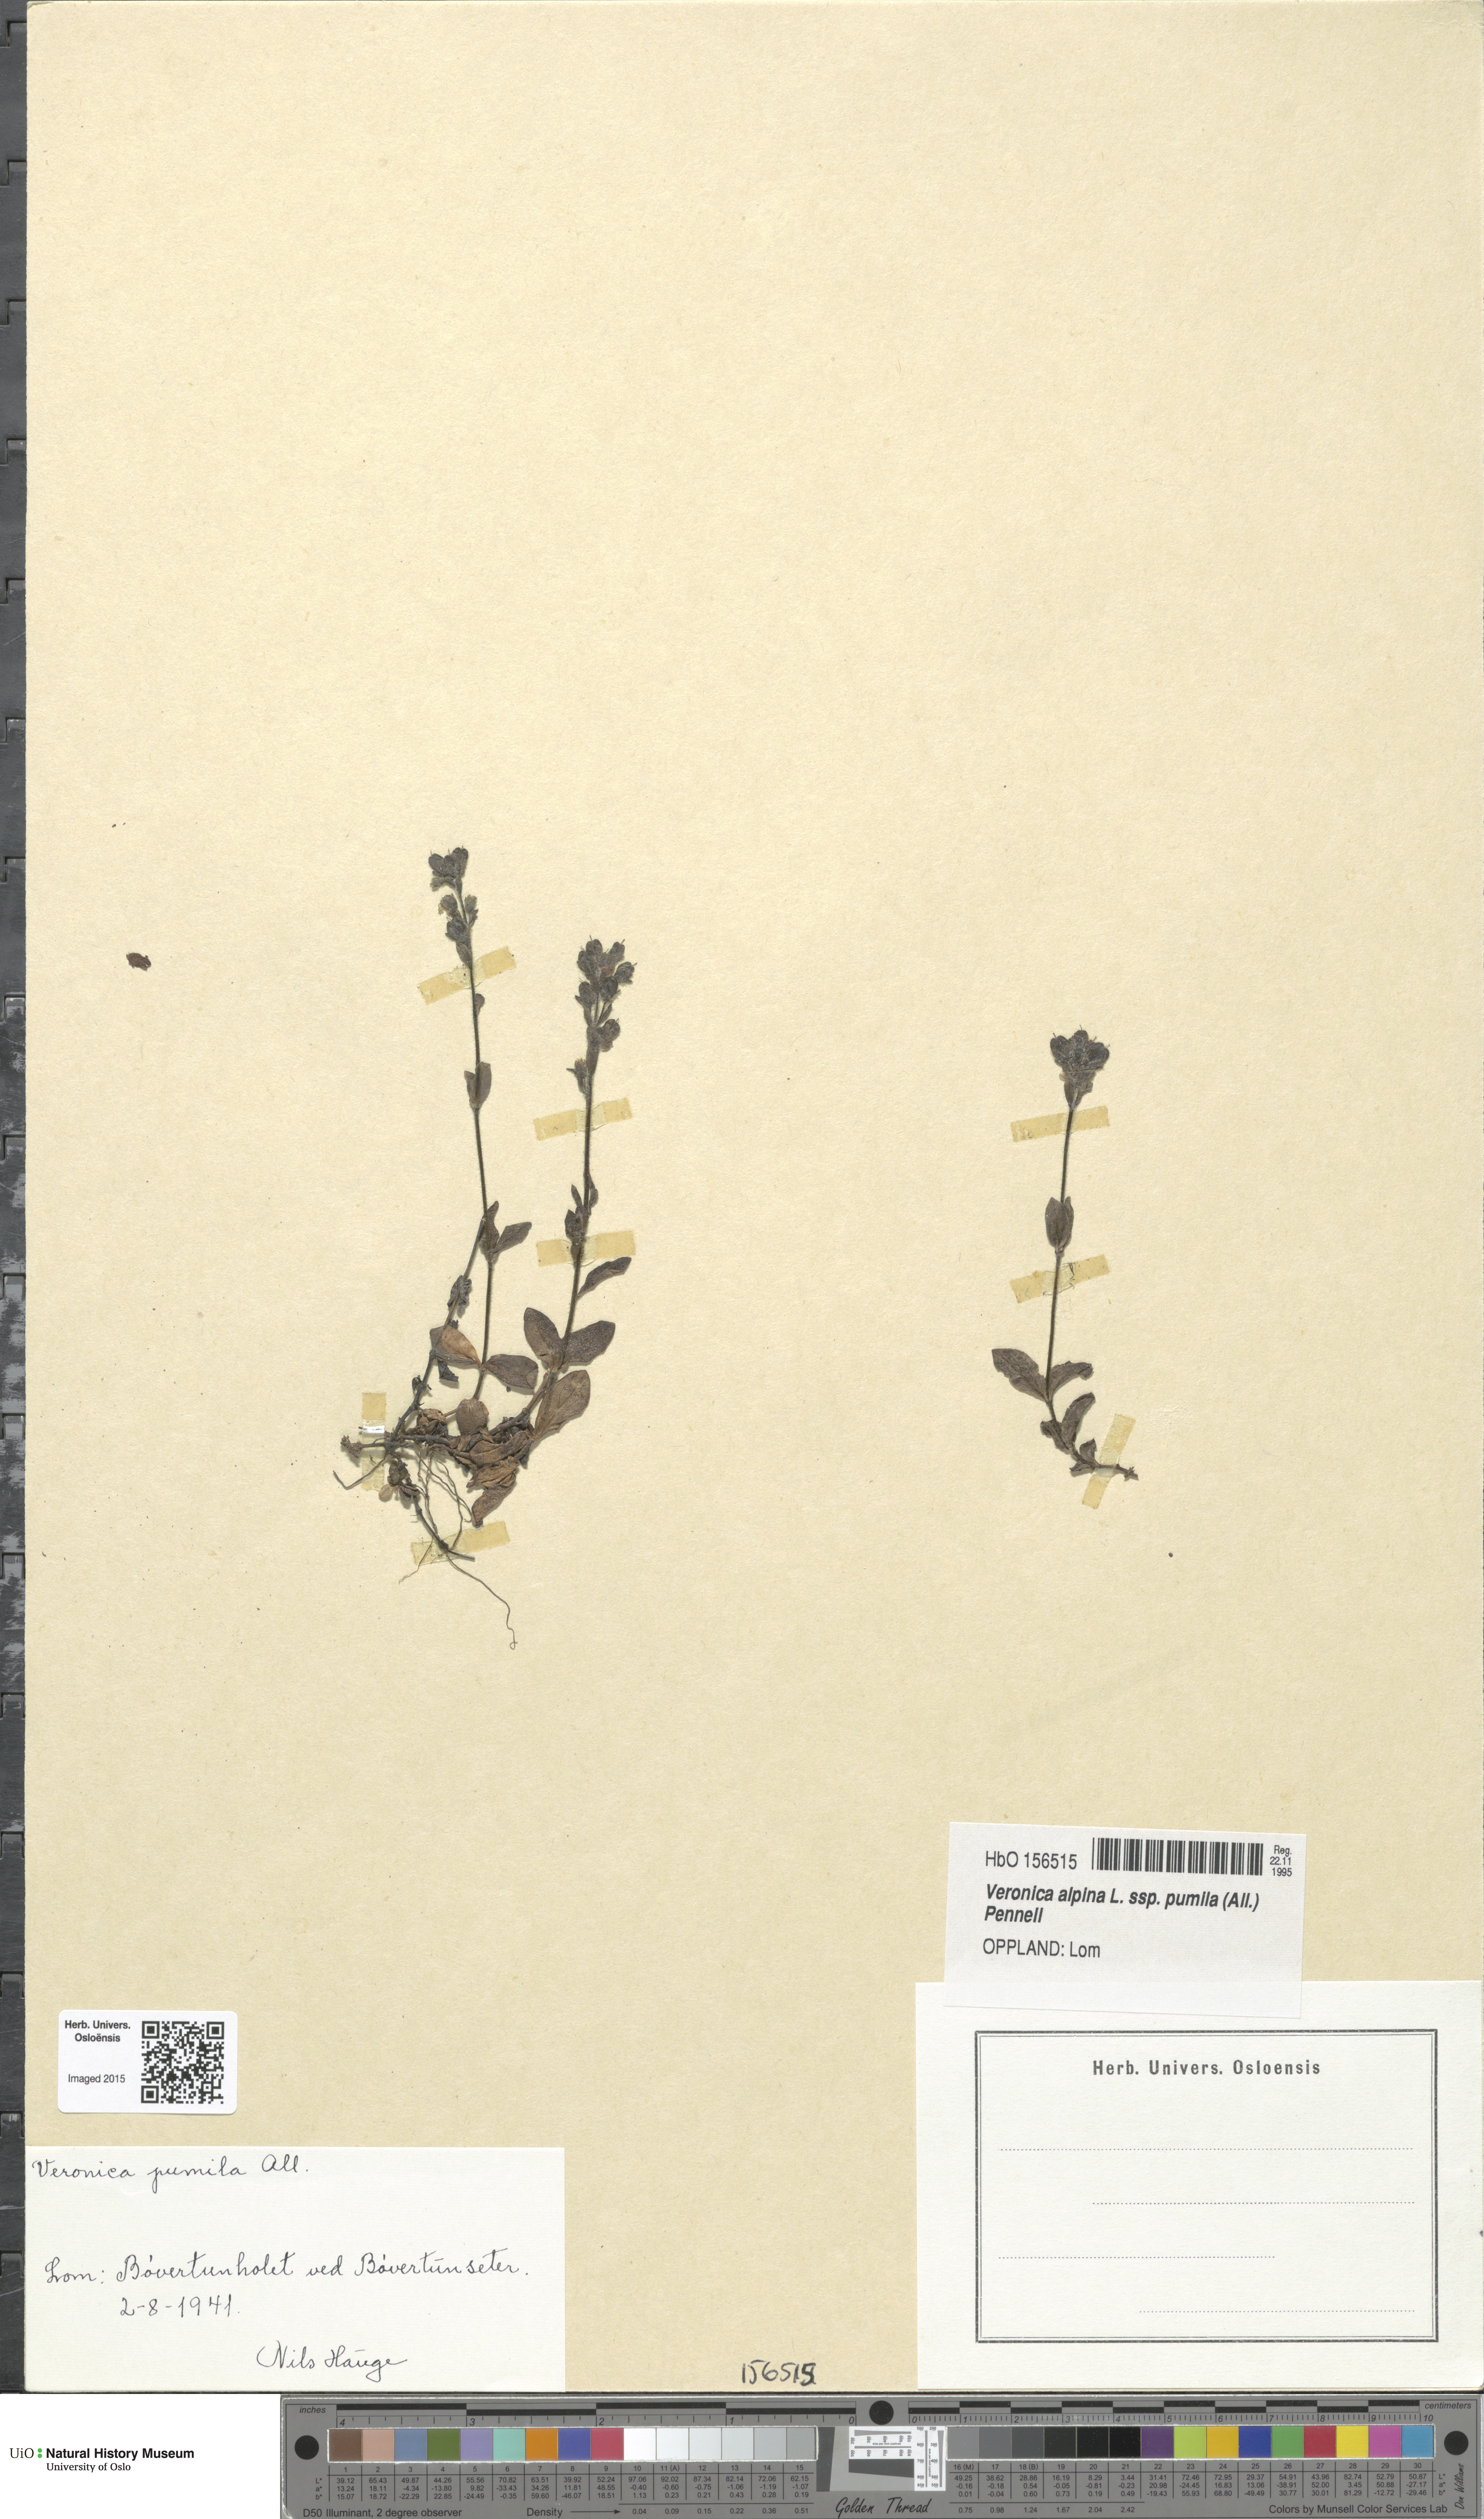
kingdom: Plantae
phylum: Tracheophyta
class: Magnoliopsida
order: Lamiales
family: Plantaginaceae
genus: Veronica
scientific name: Veronica alpina
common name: Alpine speedwell
